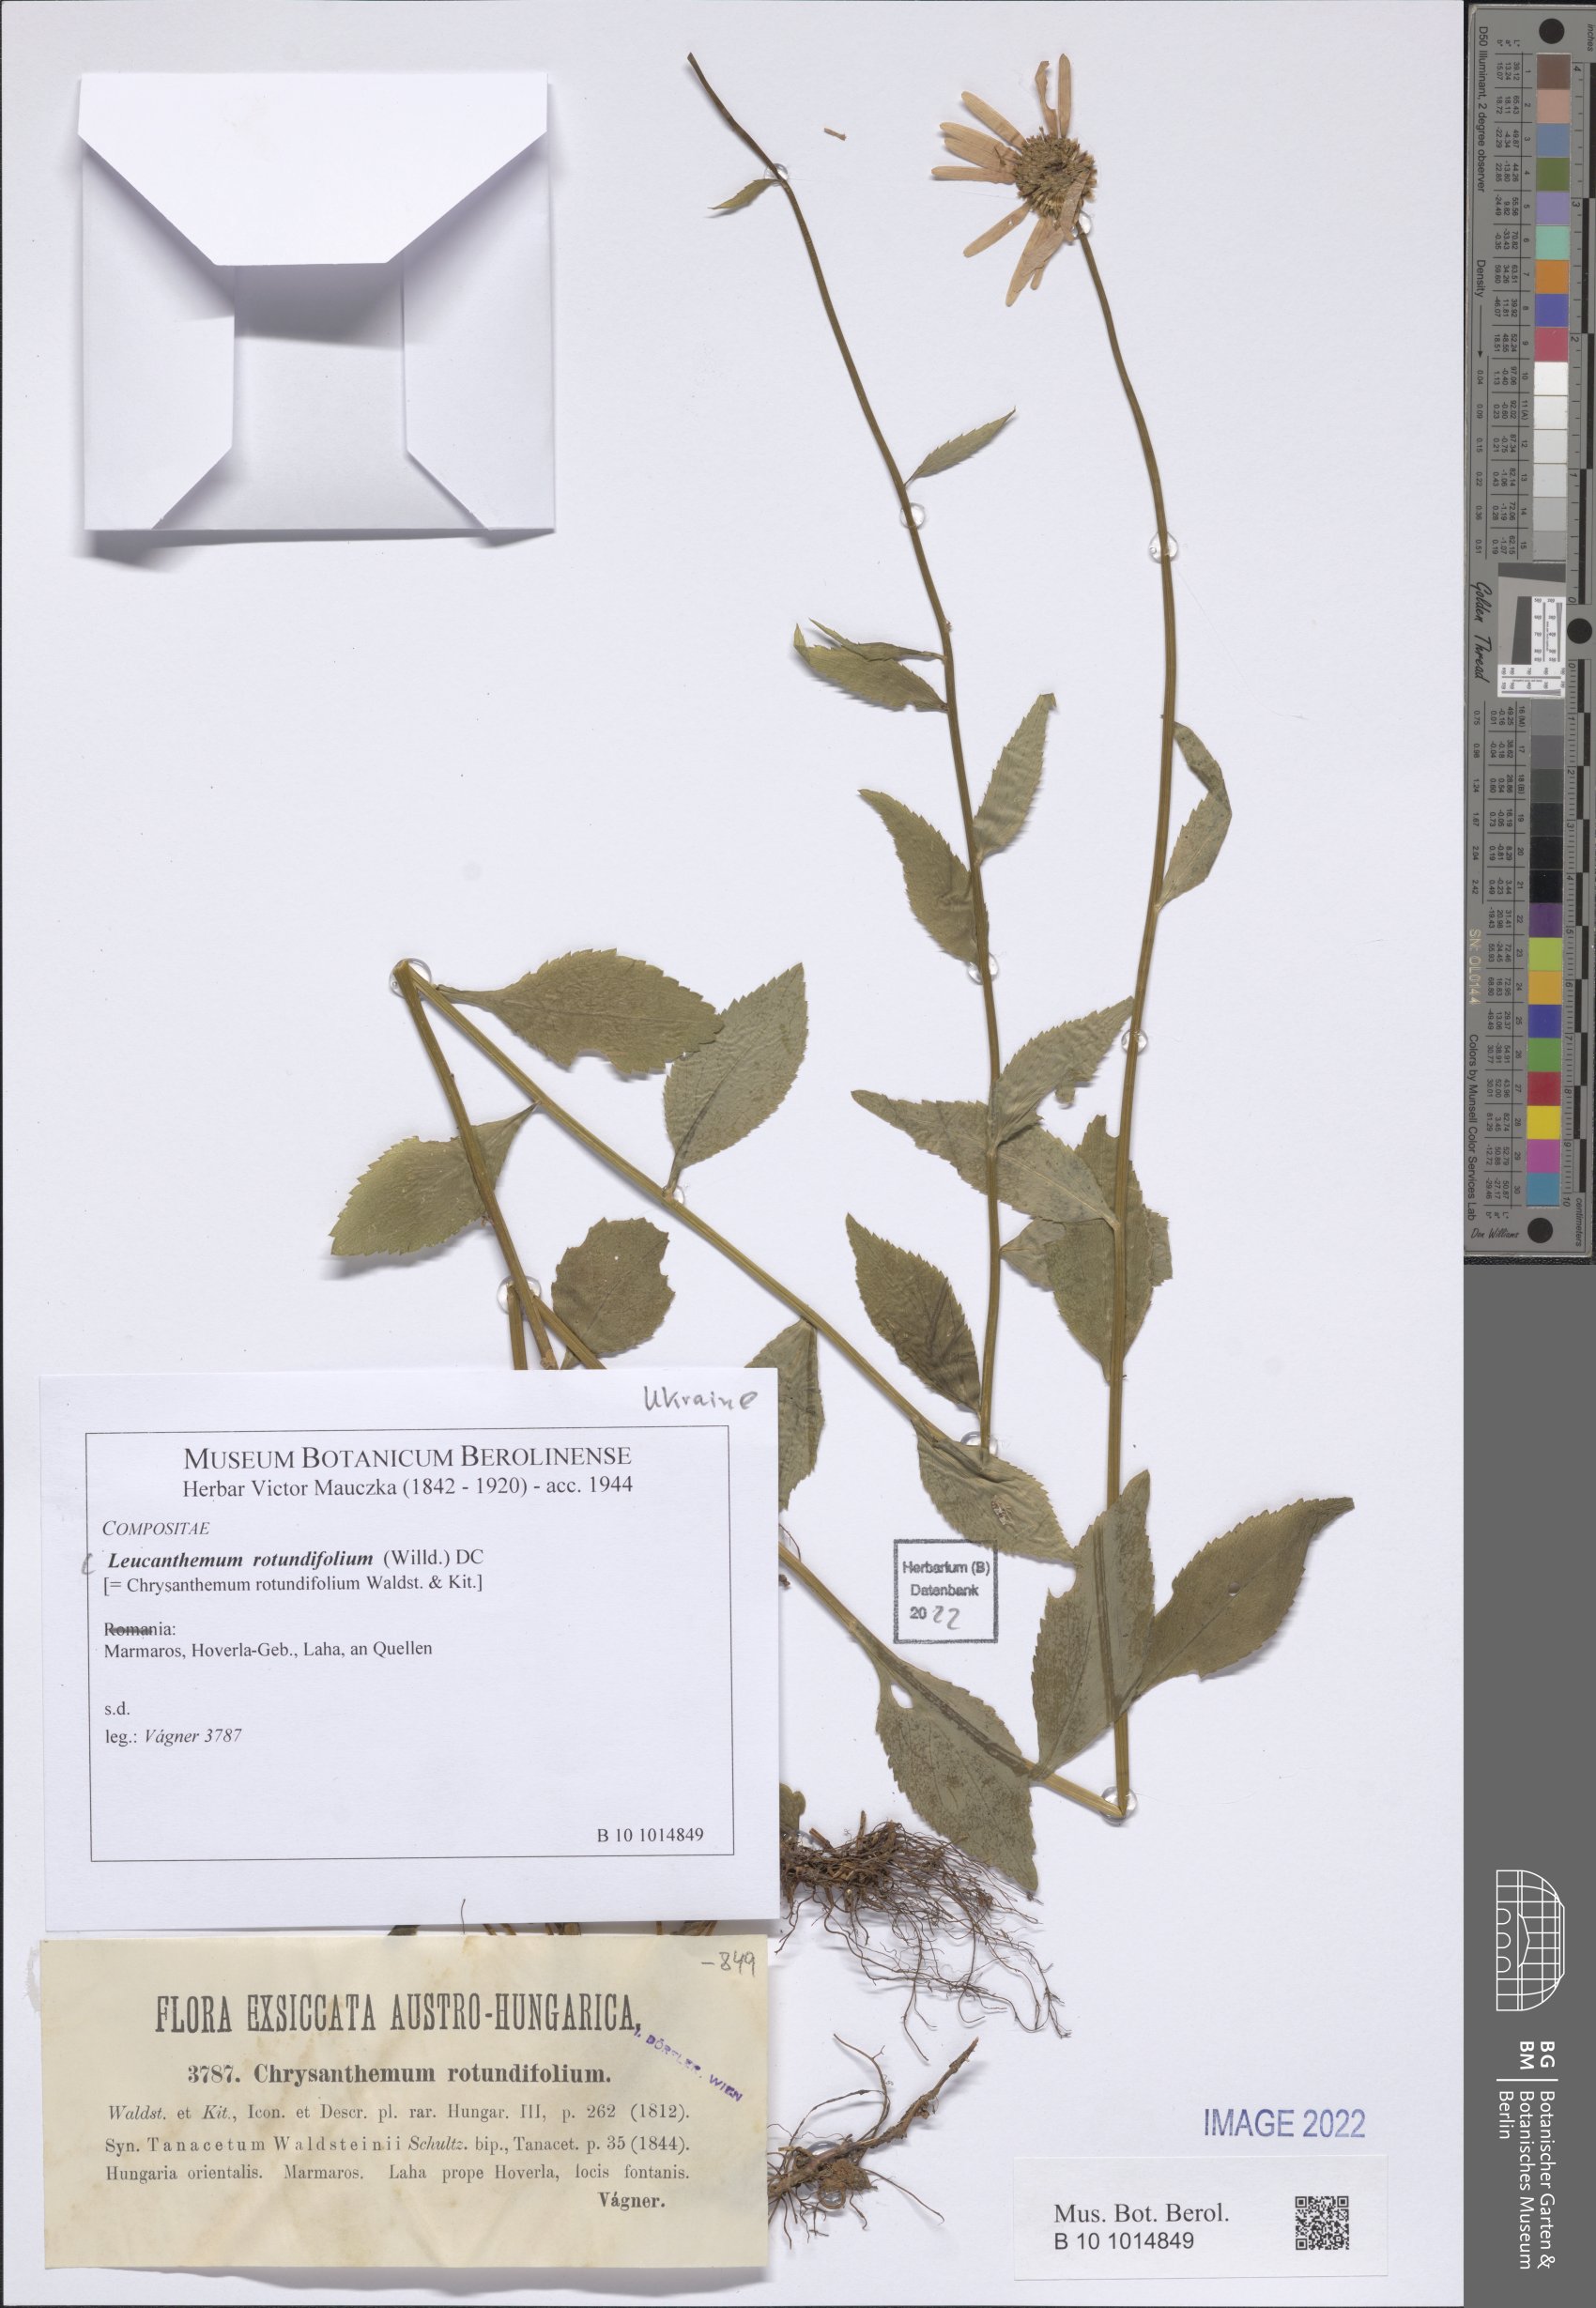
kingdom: Plantae
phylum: Tracheophyta
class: Magnoliopsida
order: Asterales
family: Asteraceae
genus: Leucanthemum
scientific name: Leucanthemum rotundifolium
